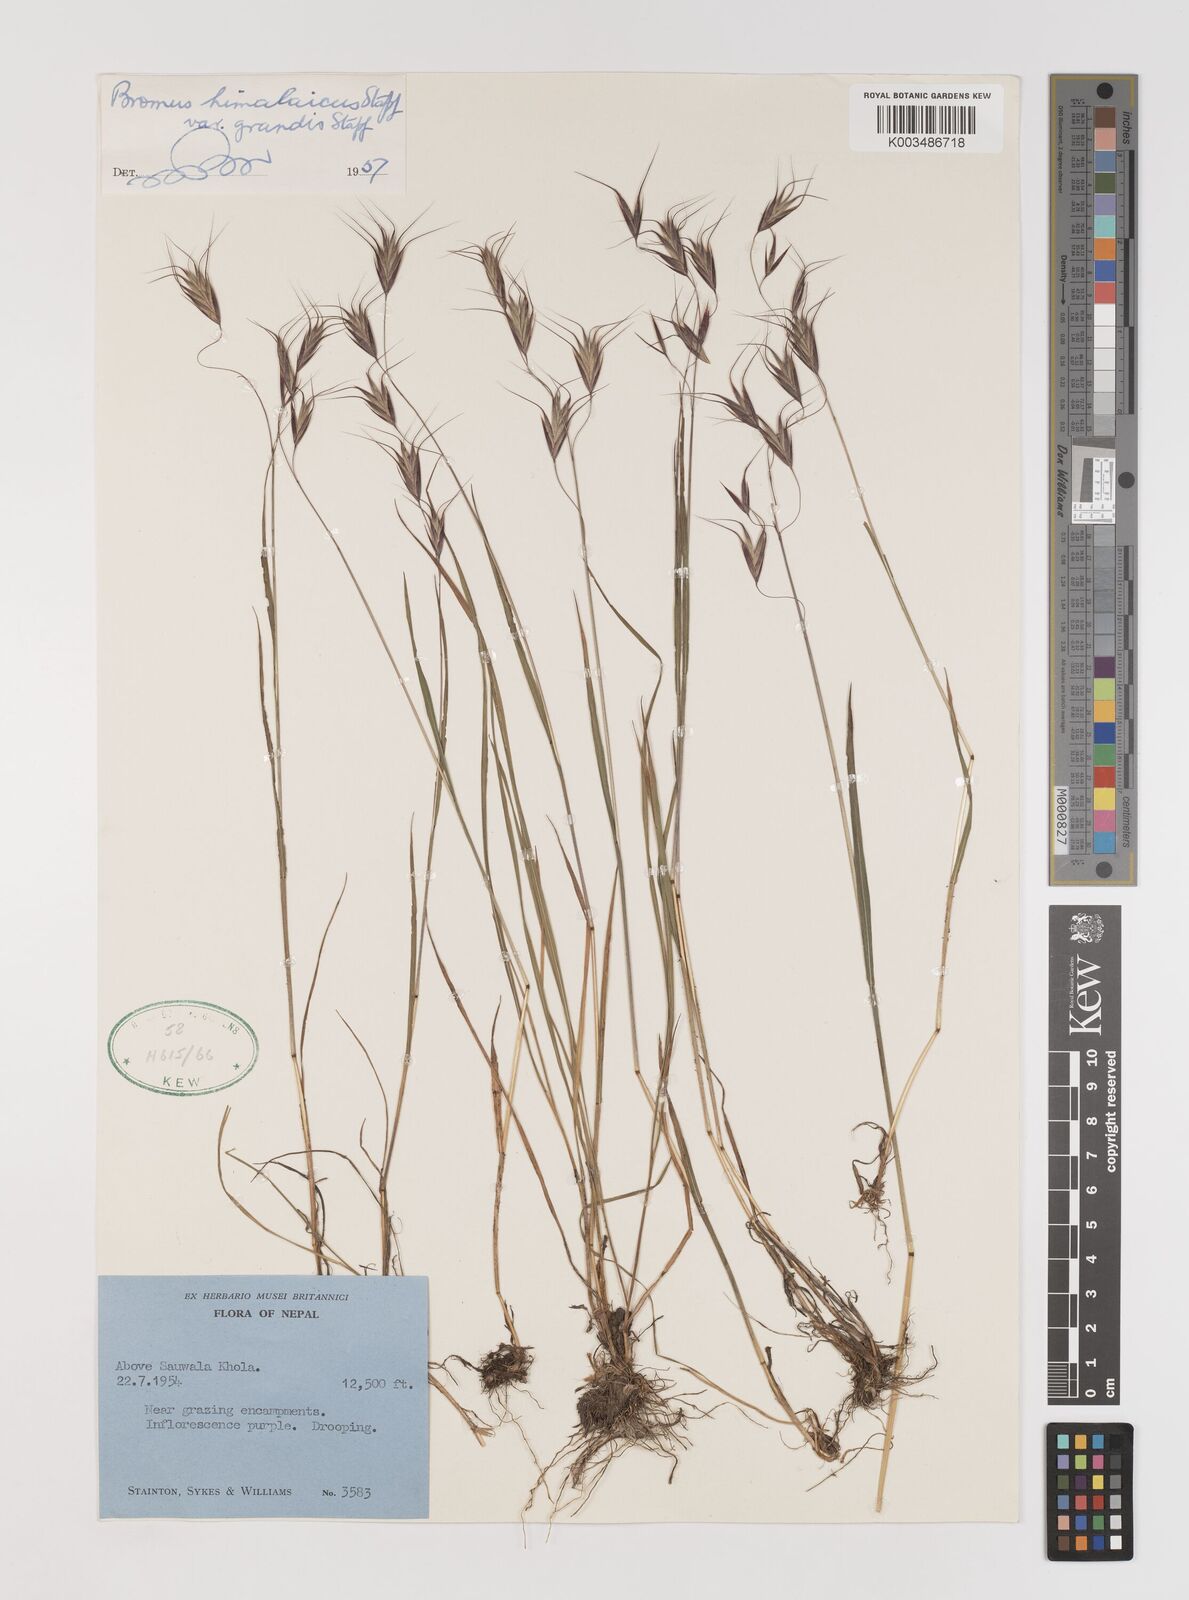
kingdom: Plantae
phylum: Tracheophyta
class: Liliopsida
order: Poales
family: Poaceae
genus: Bromus
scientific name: Bromus porphyranthos
